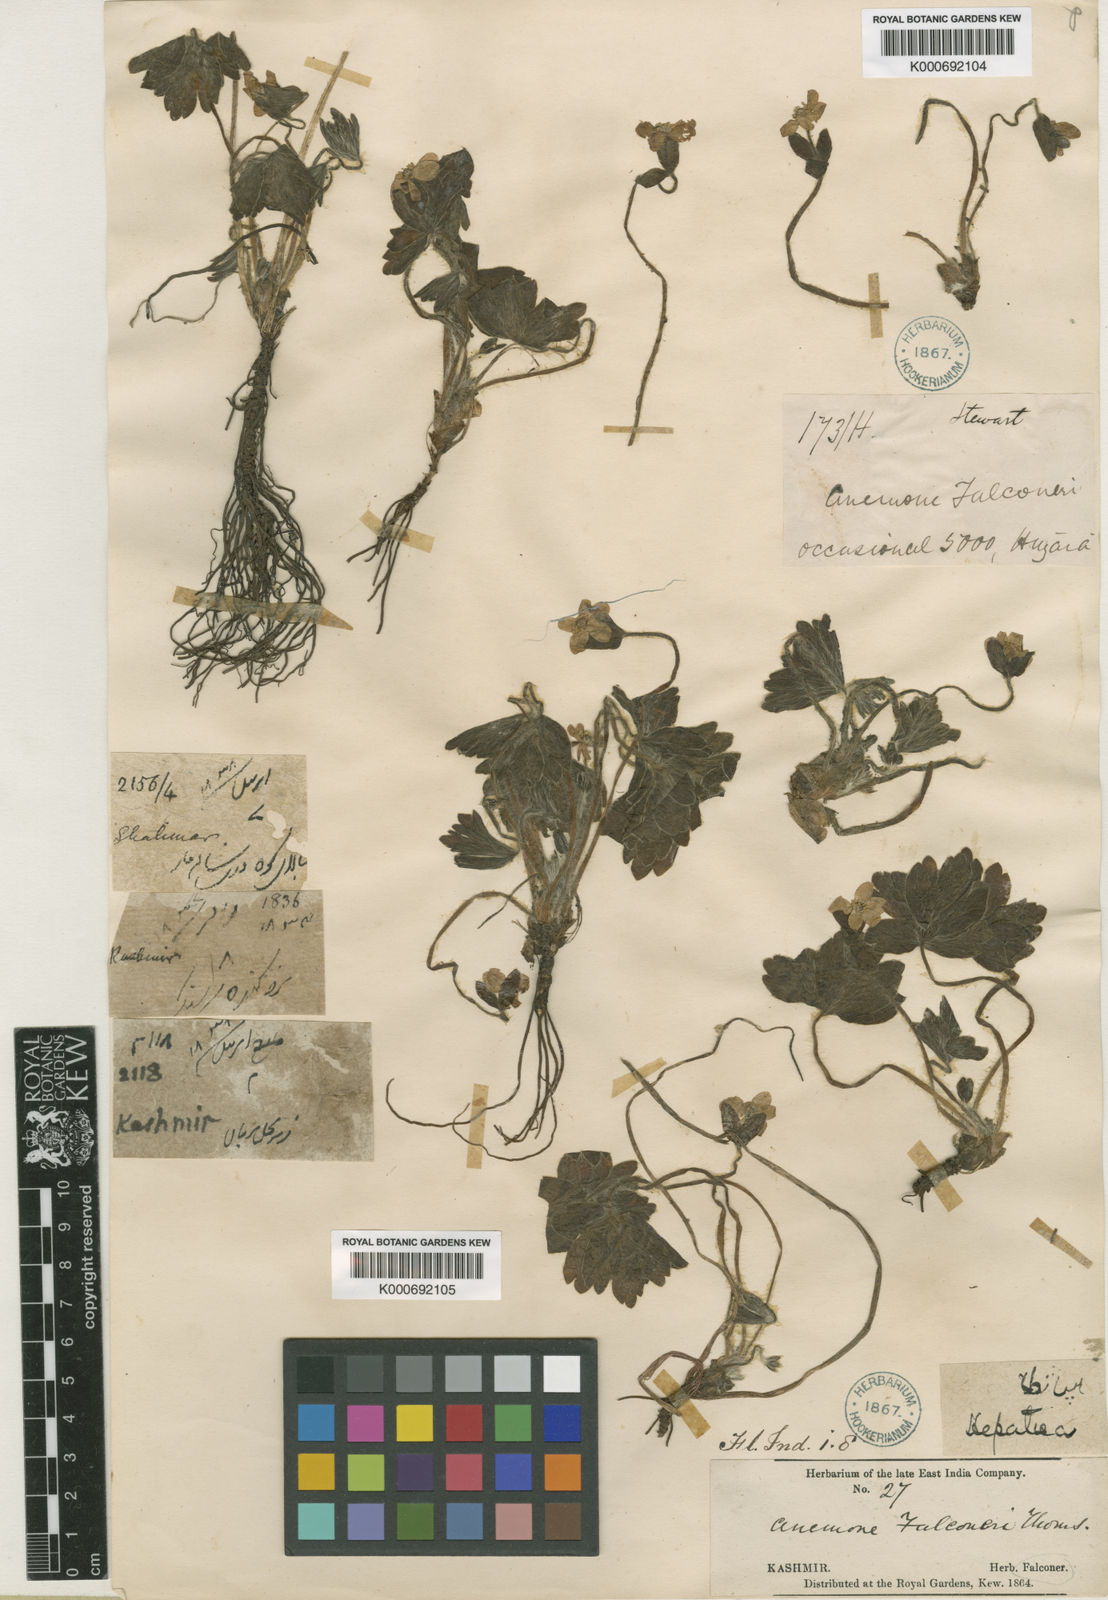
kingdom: Plantae
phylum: Tracheophyta
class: Magnoliopsida
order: Ranunculales
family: Ranunculaceae
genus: Hepatica
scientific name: Hepatica falconeri
